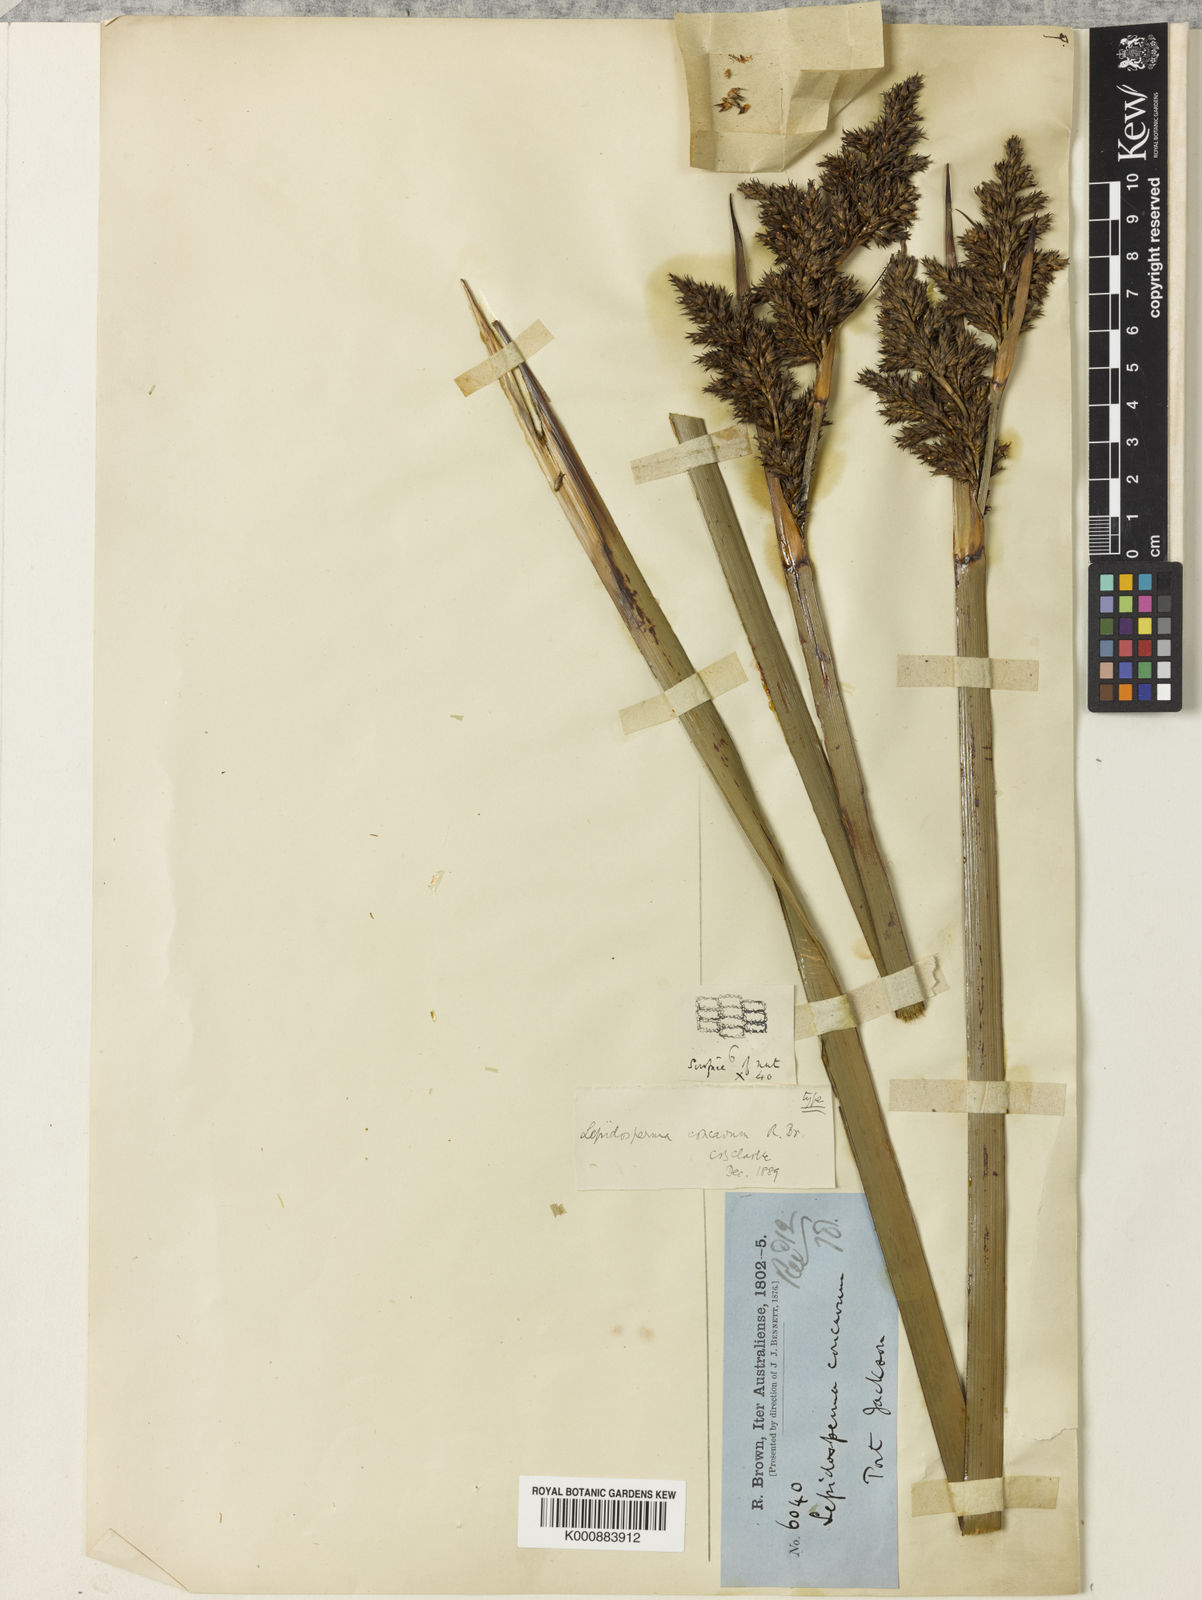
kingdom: Plantae
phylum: Tracheophyta
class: Liliopsida
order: Poales
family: Cyperaceae
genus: Lepidosperma
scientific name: Lepidosperma
